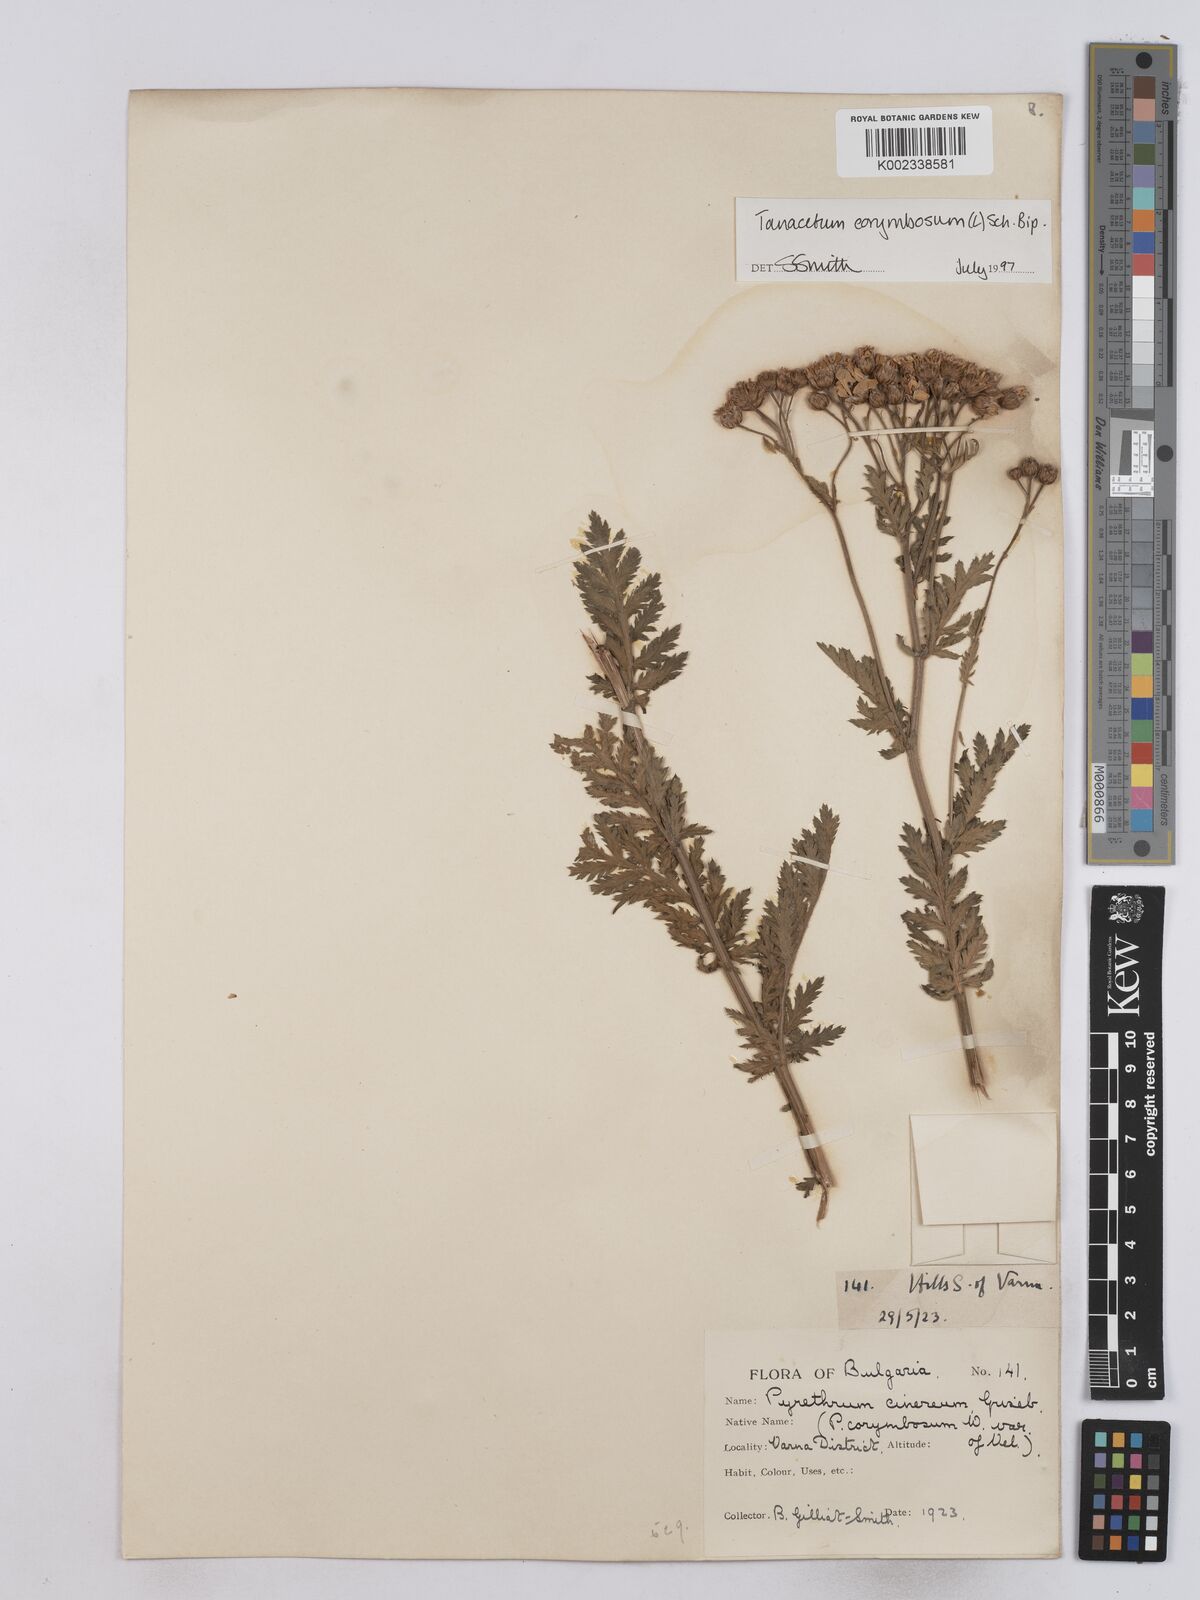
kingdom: Plantae
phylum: Tracheophyta
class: Magnoliopsida
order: Asterales
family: Asteraceae
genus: Tanacetum
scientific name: Tanacetum corymbosum
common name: Scentless feverfew
